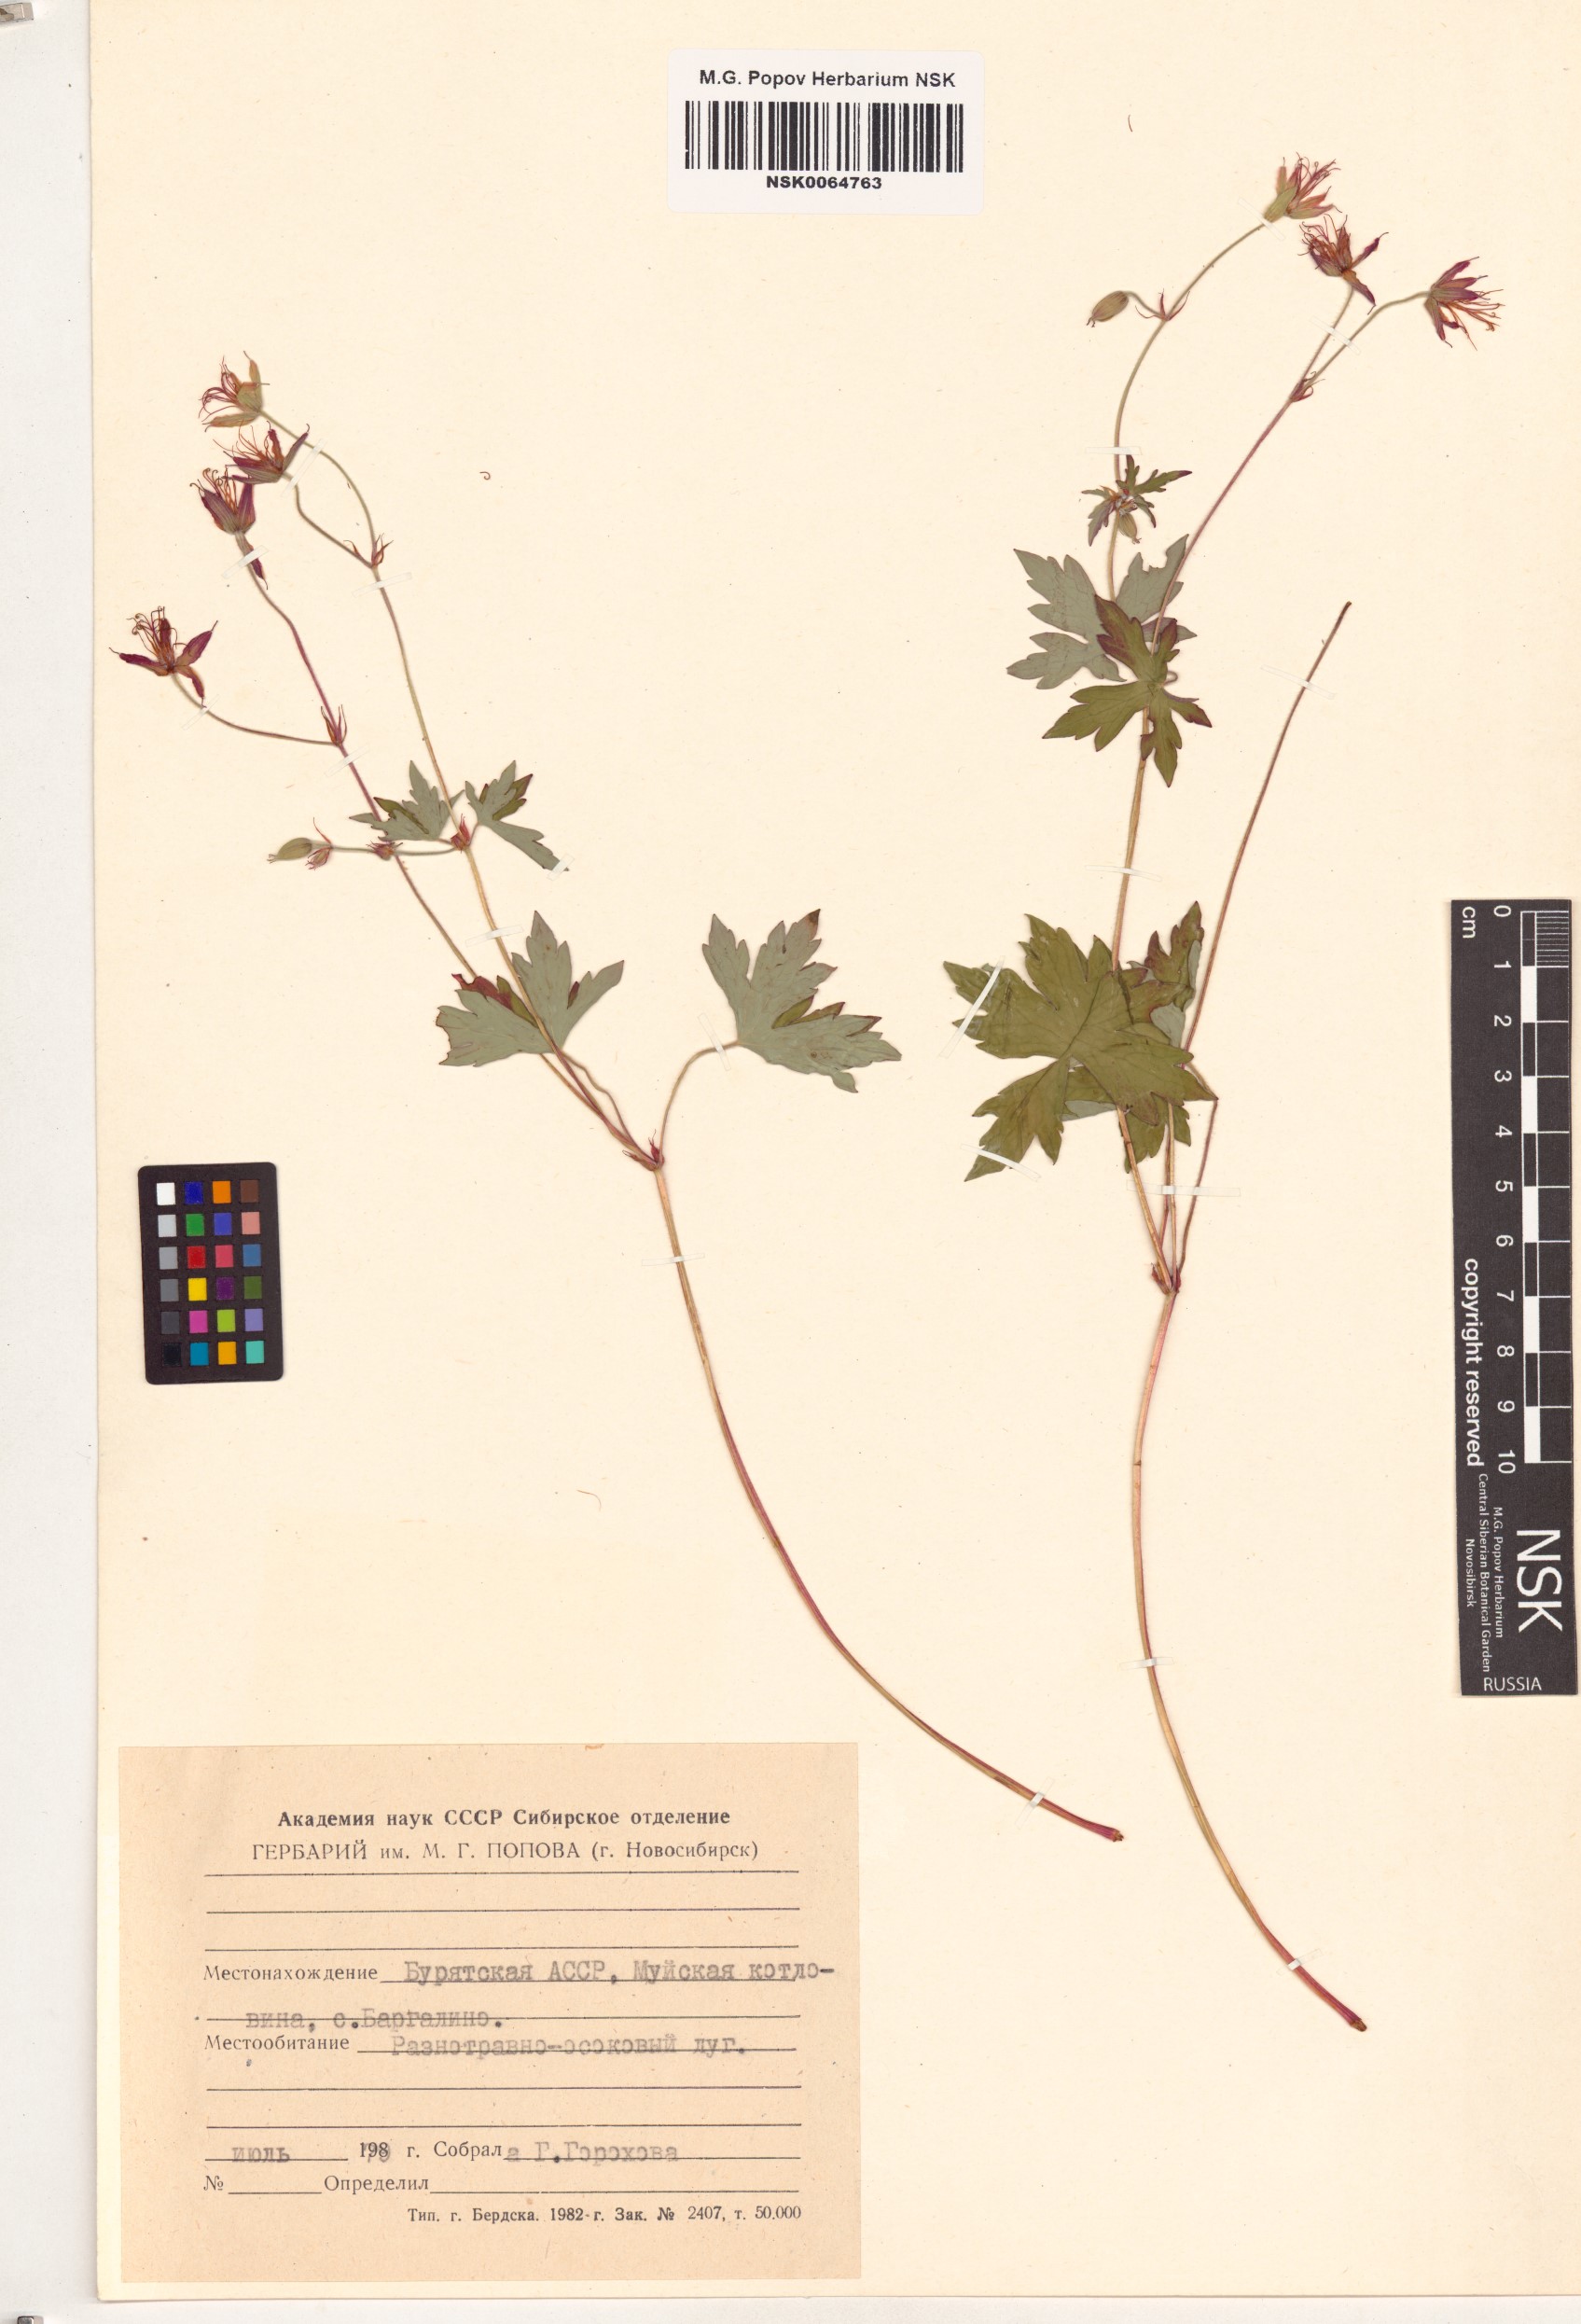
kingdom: Plantae
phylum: Tracheophyta
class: Magnoliopsida
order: Geraniales
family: Geraniaceae
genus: Geranium
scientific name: Geranium wlassovianum
